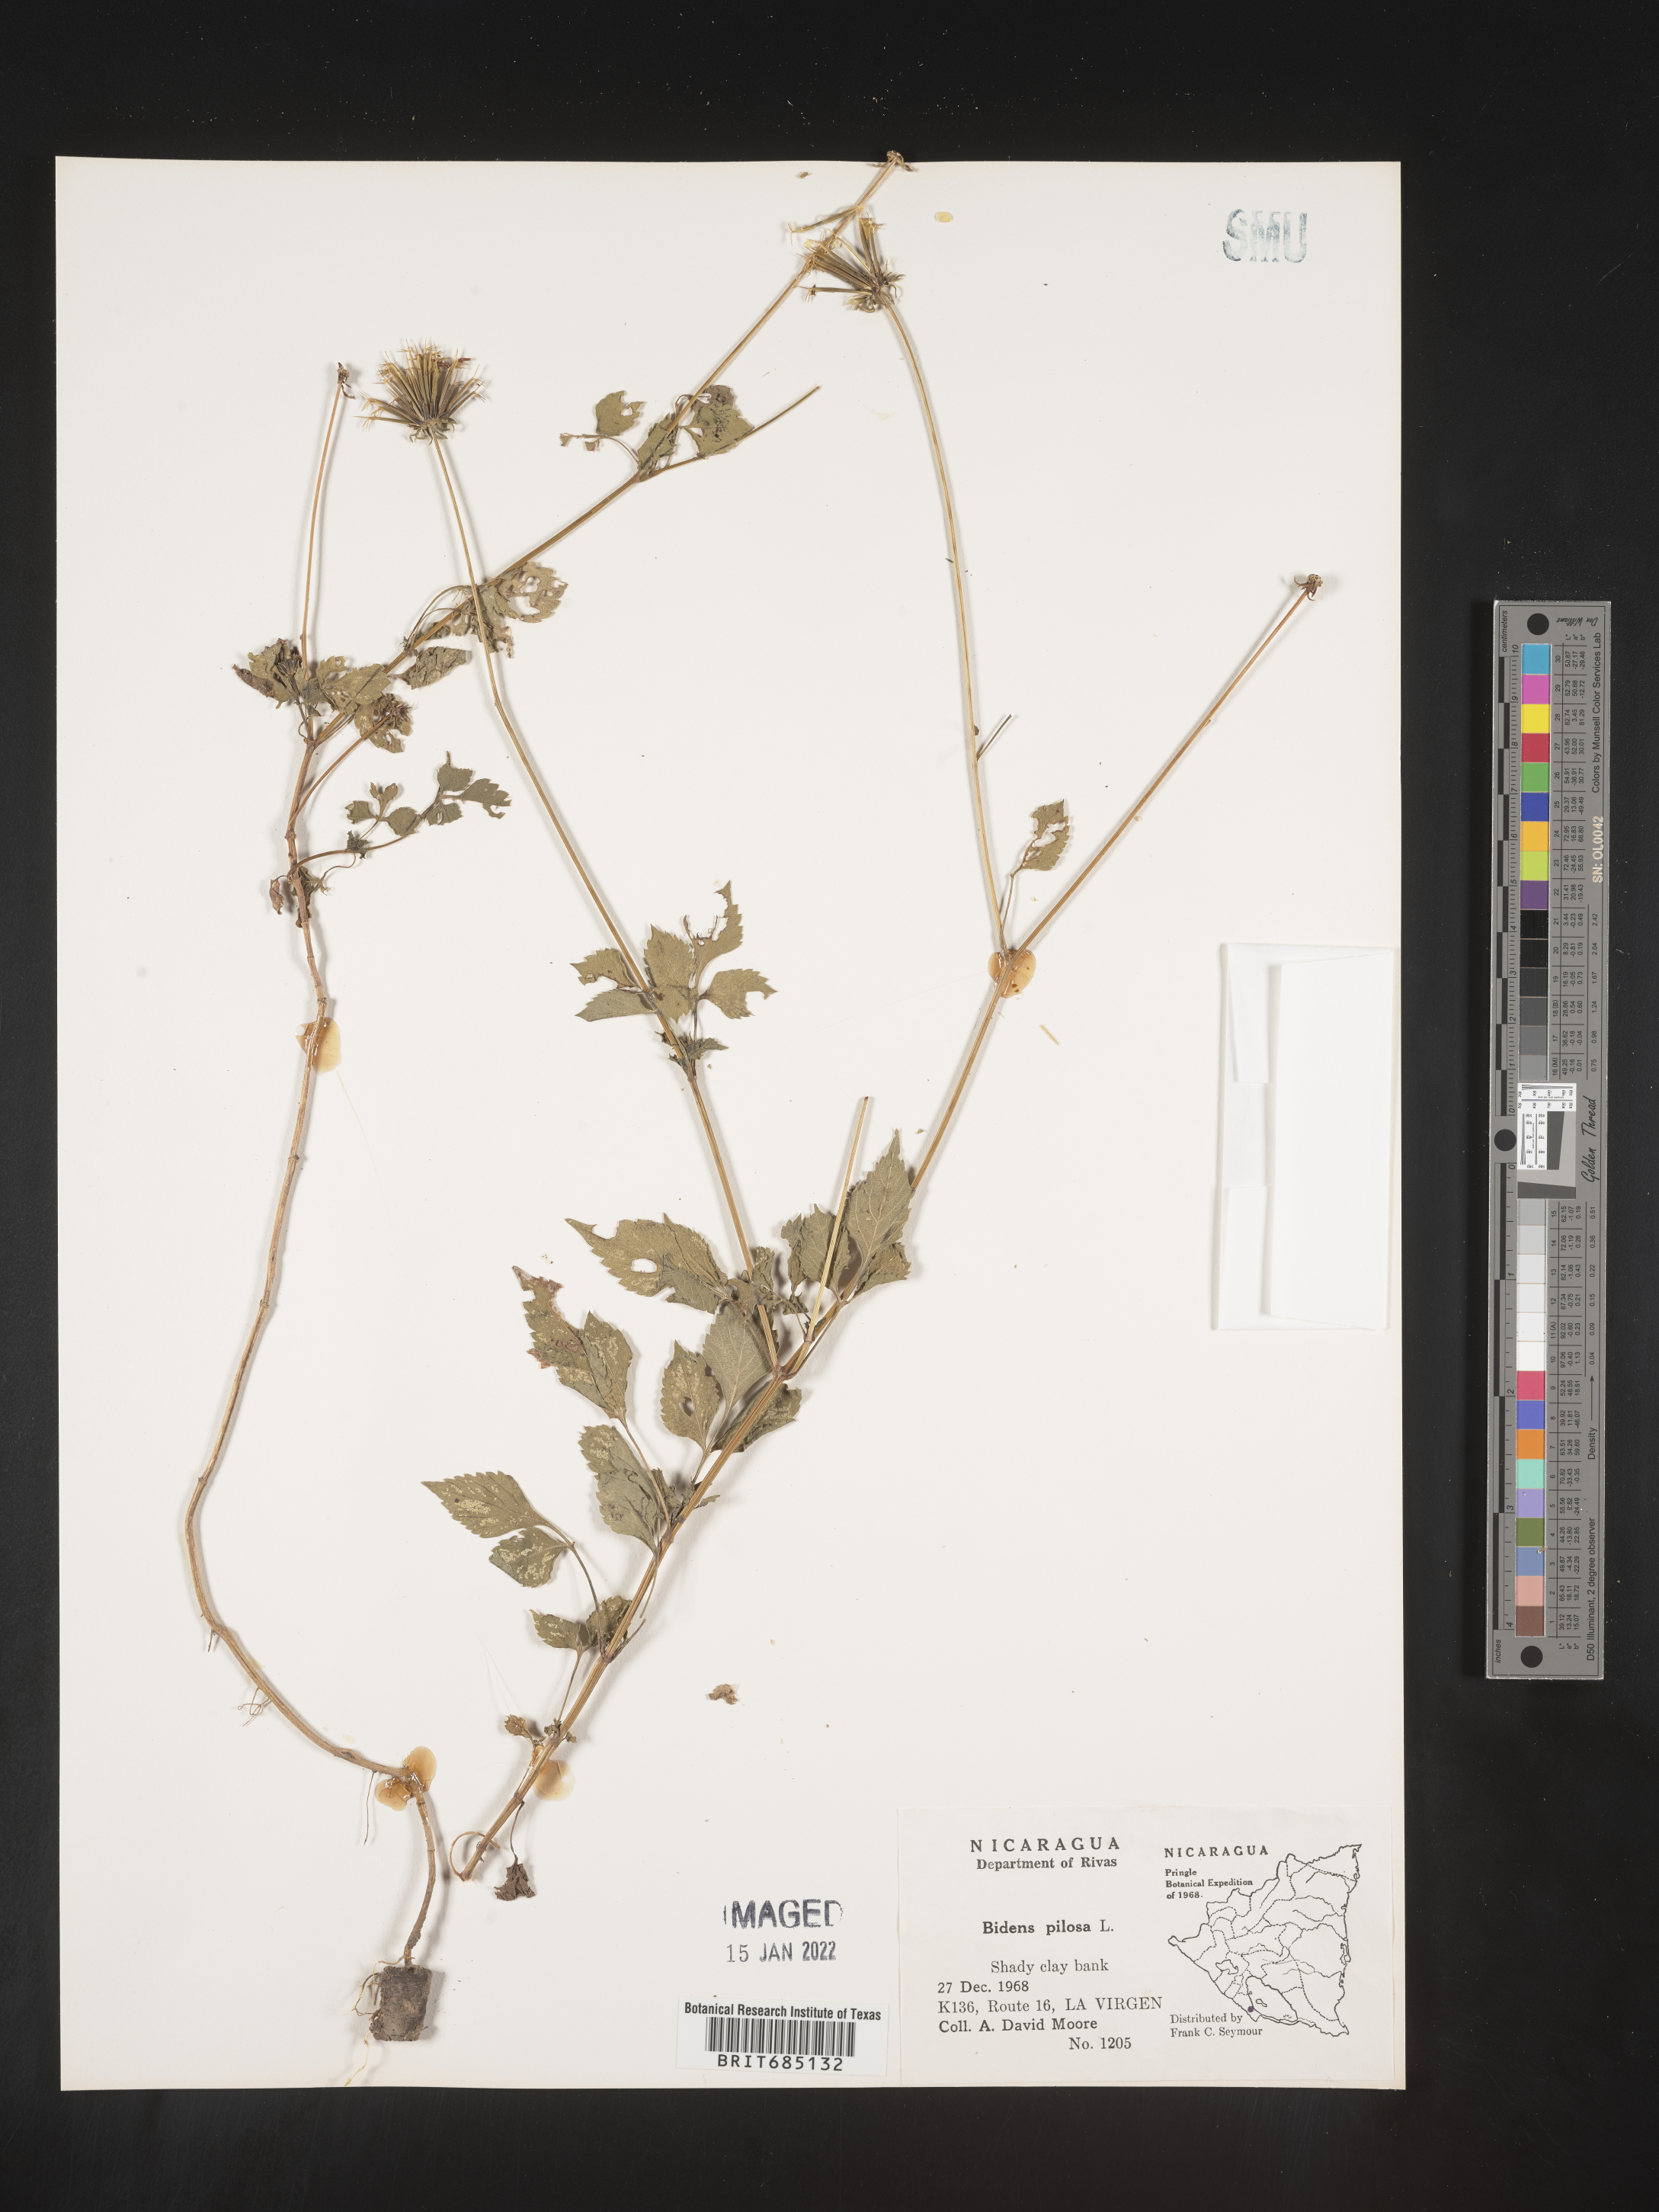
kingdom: Plantae
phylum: Tracheophyta
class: Magnoliopsida
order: Asterales
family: Asteraceae
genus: Bidens
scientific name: Bidens
